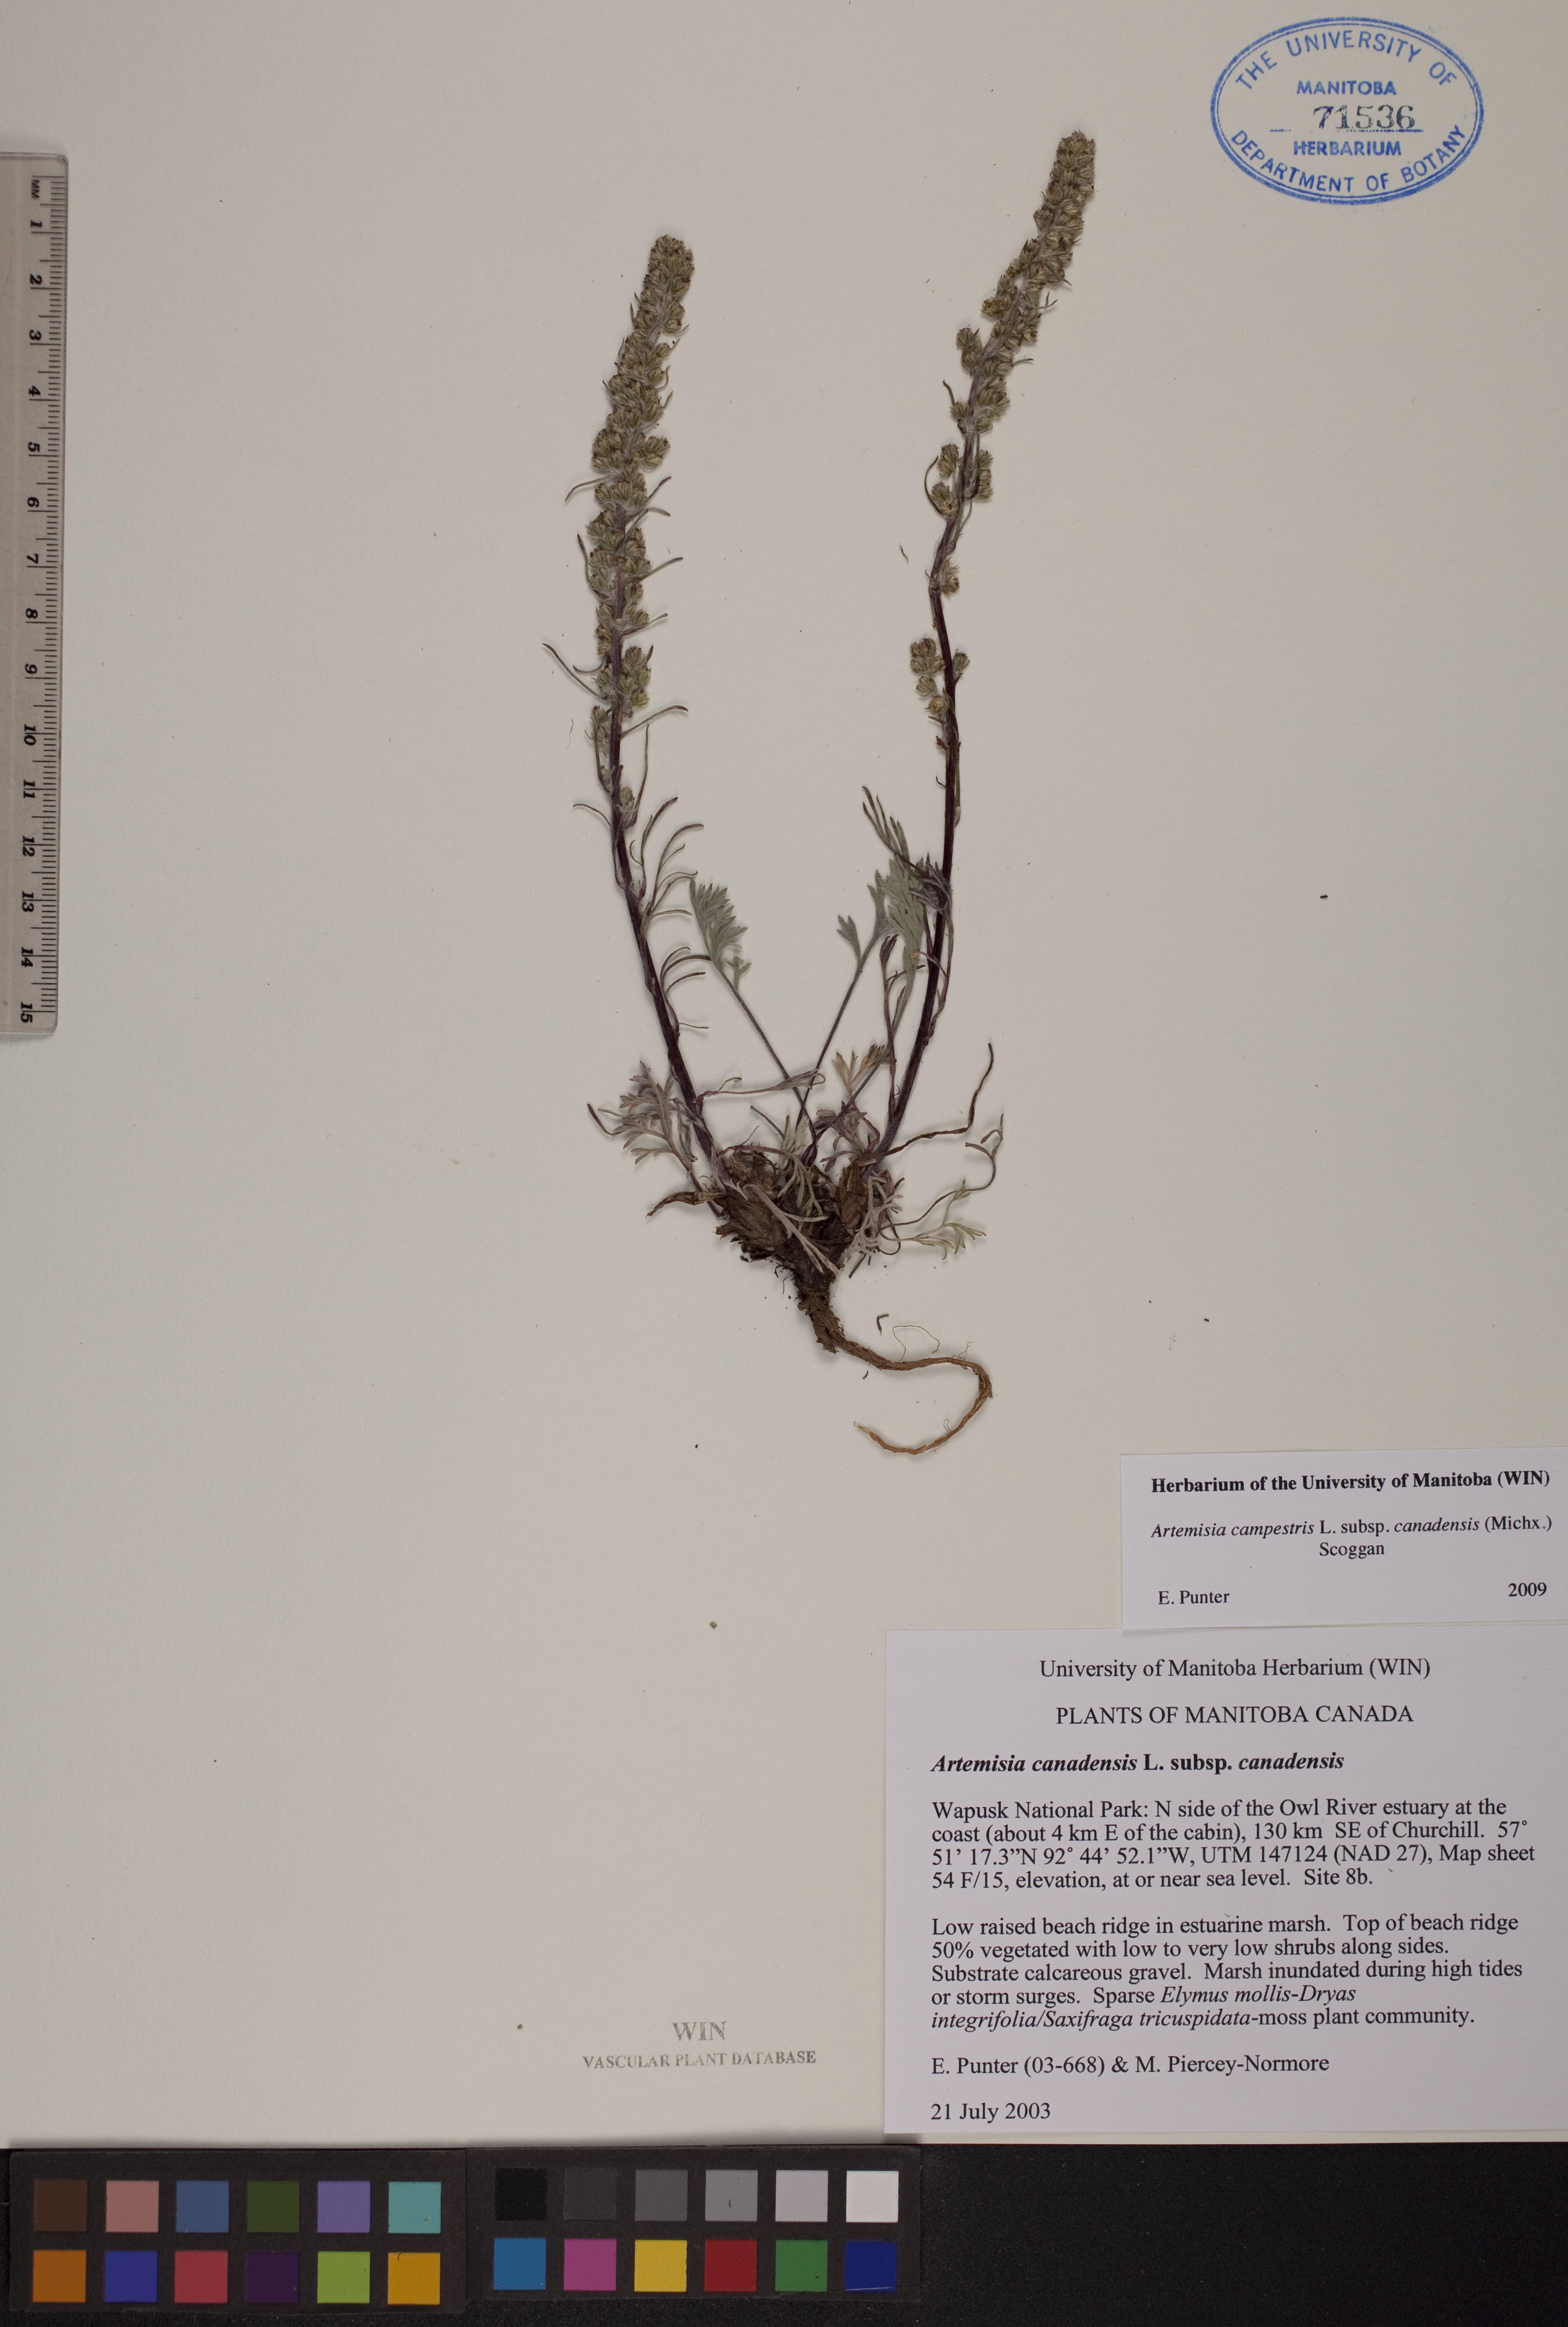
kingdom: Plantae
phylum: Tracheophyta
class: Magnoliopsida
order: Asterales
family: Asteraceae
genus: Artemisia
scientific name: Artemisia campestris
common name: Field wormwood
